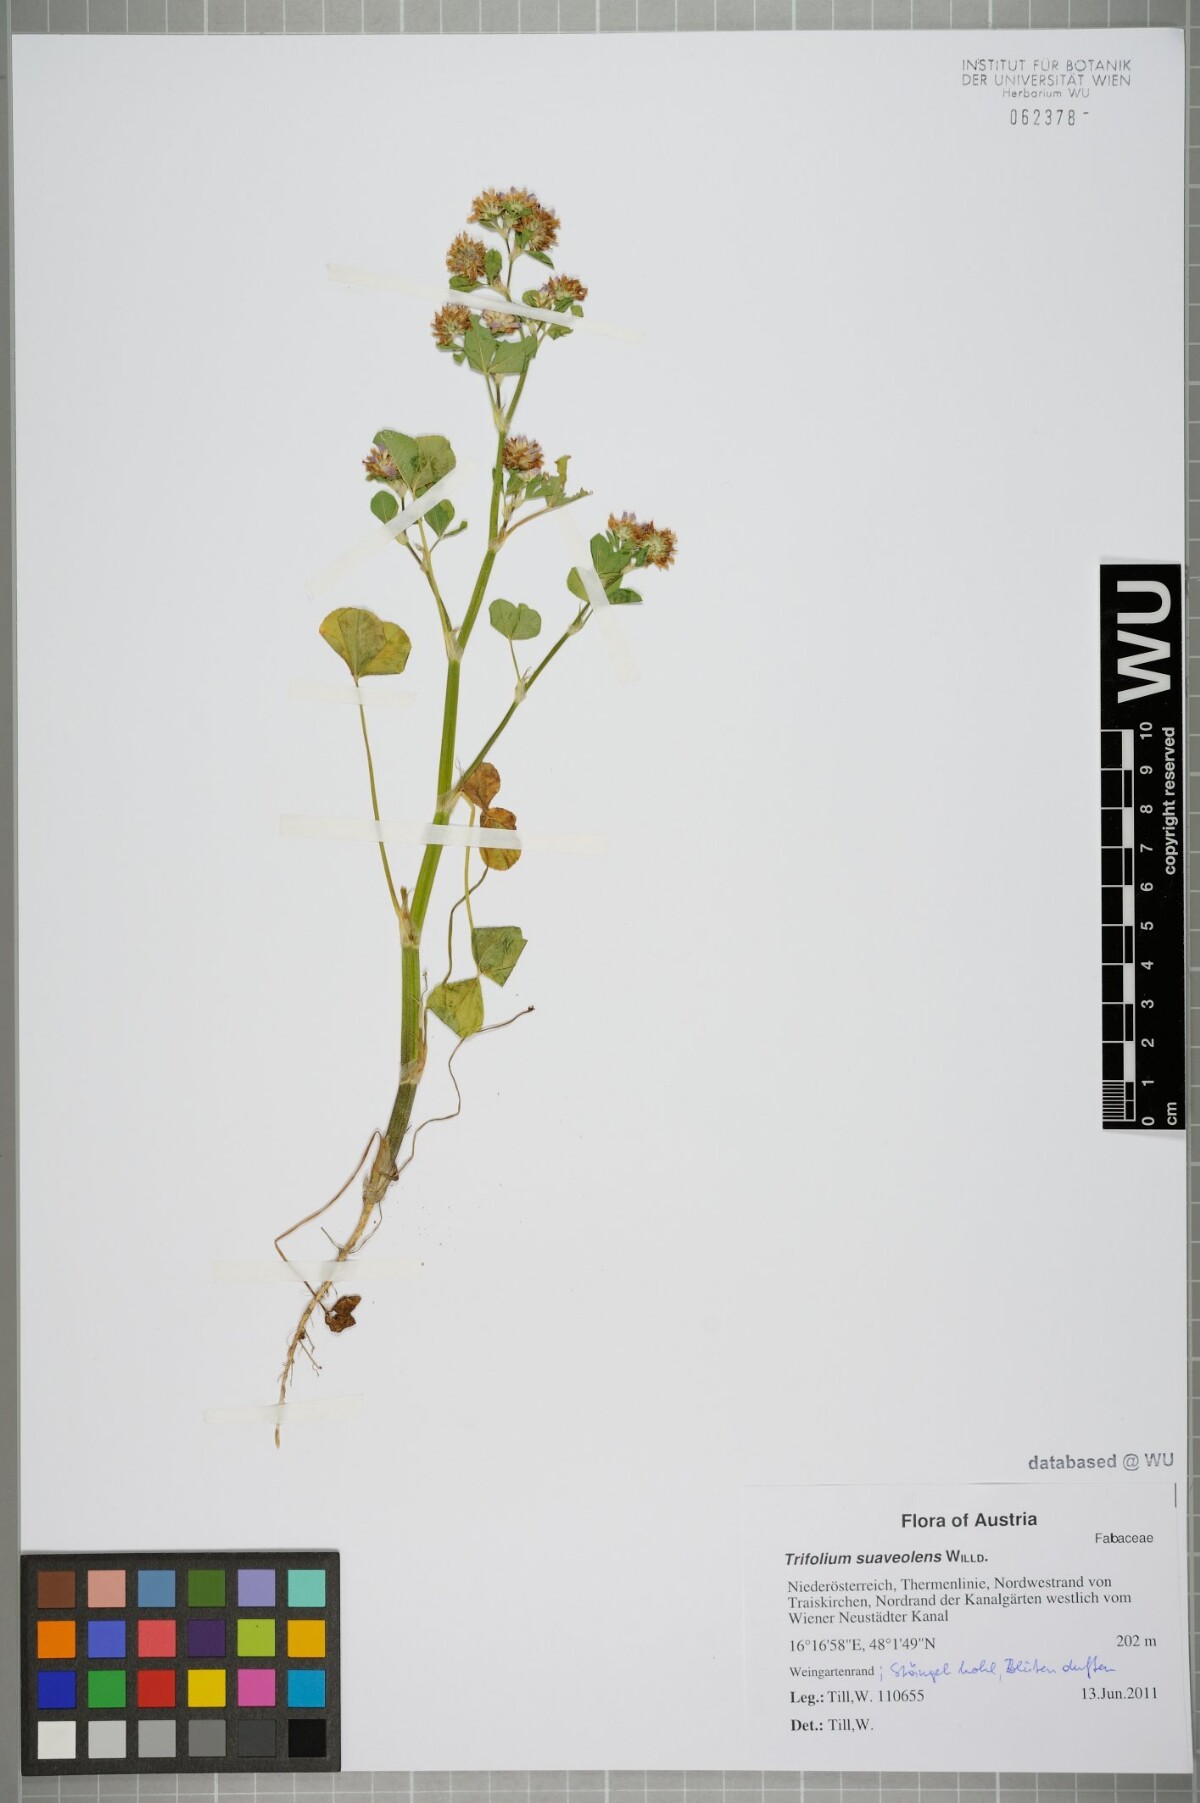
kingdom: Plantae
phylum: Tracheophyta
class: Magnoliopsida
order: Fabales
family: Fabaceae
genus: Trifolium
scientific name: Trifolium resupinatum
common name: Reversed clover
